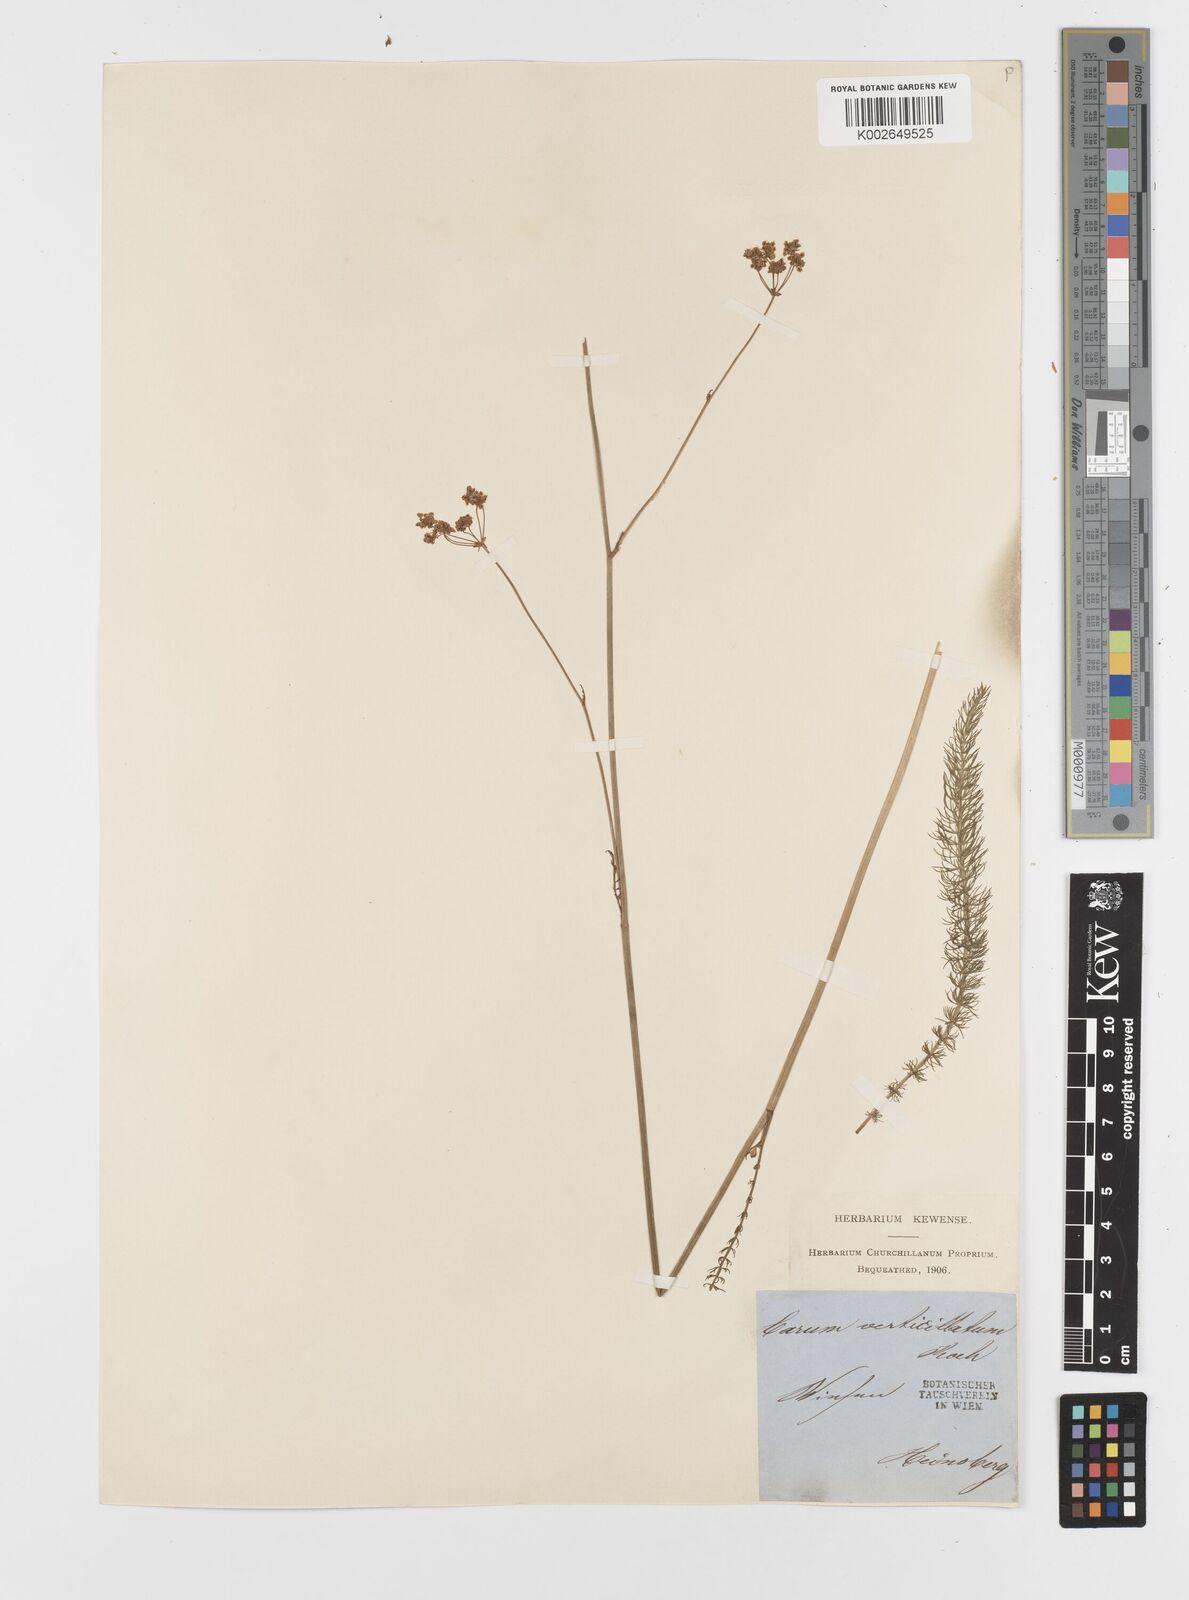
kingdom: Plantae
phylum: Tracheophyta
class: Magnoliopsida
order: Apiales
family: Apiaceae
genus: Trocdaris
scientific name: Trocdaris verticillatum
